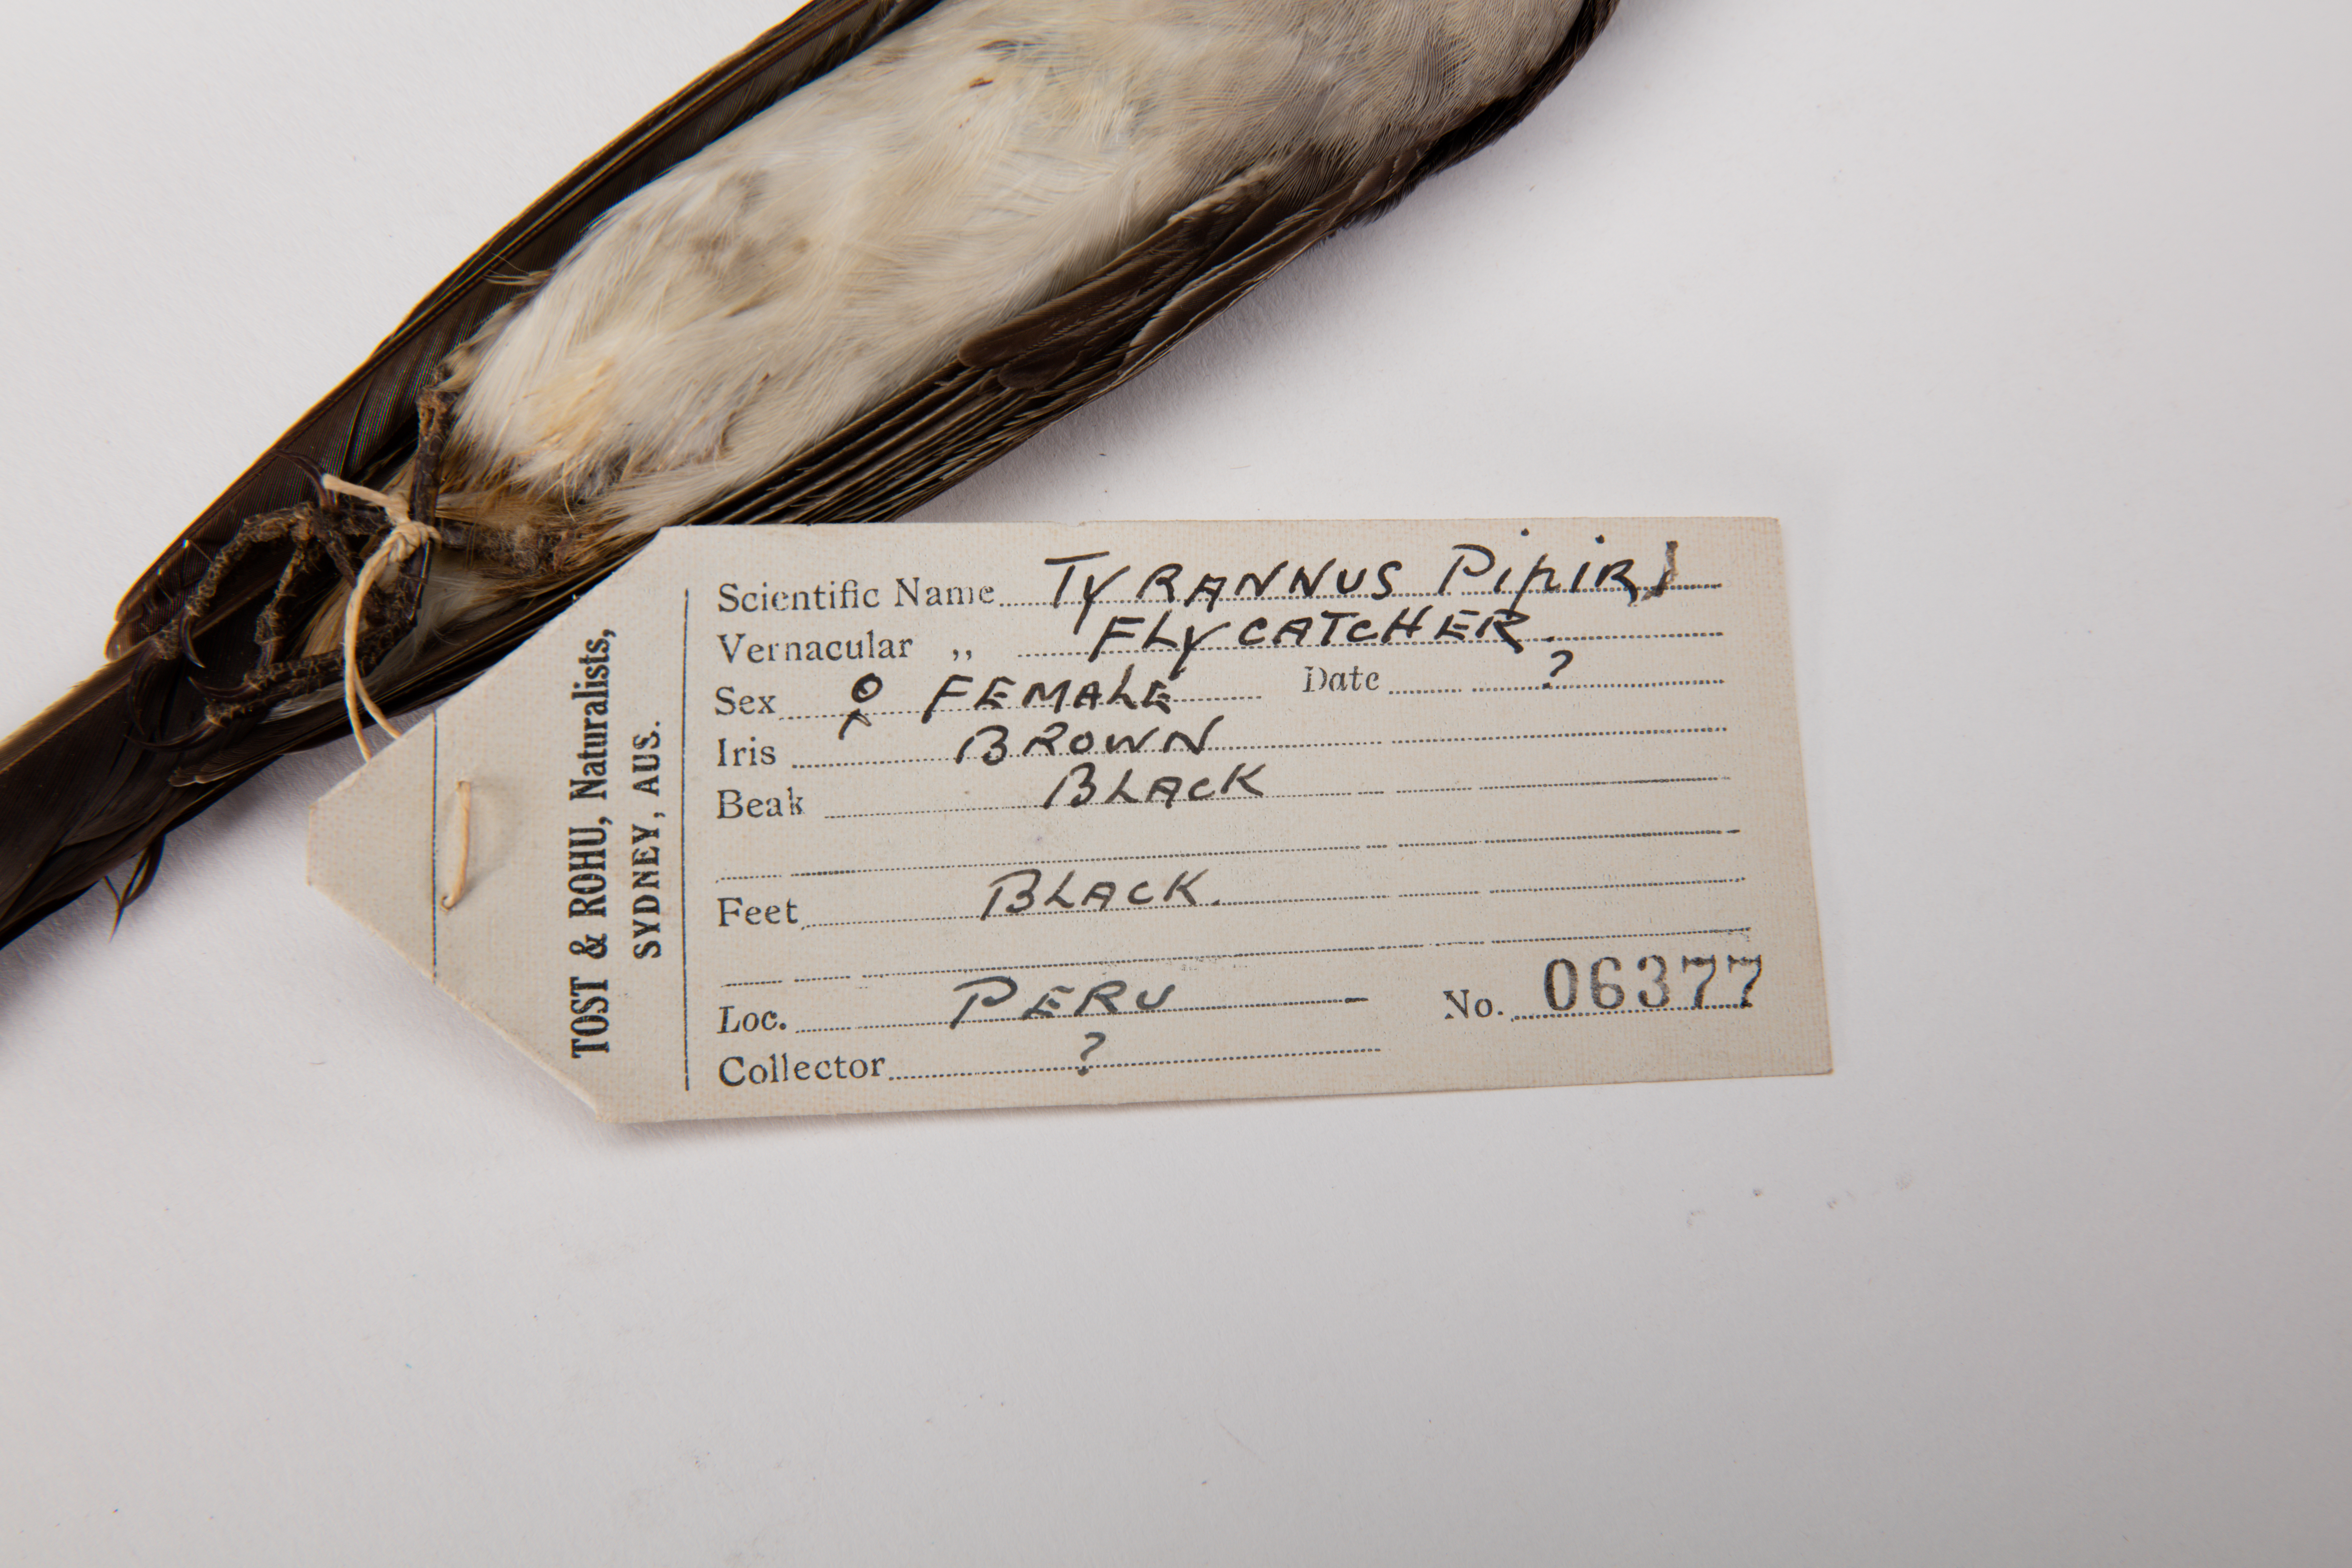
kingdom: Animalia
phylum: Chordata
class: Aves
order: Passeriformes
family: Tyrannidae
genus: Tyrannus
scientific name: Tyrannus
